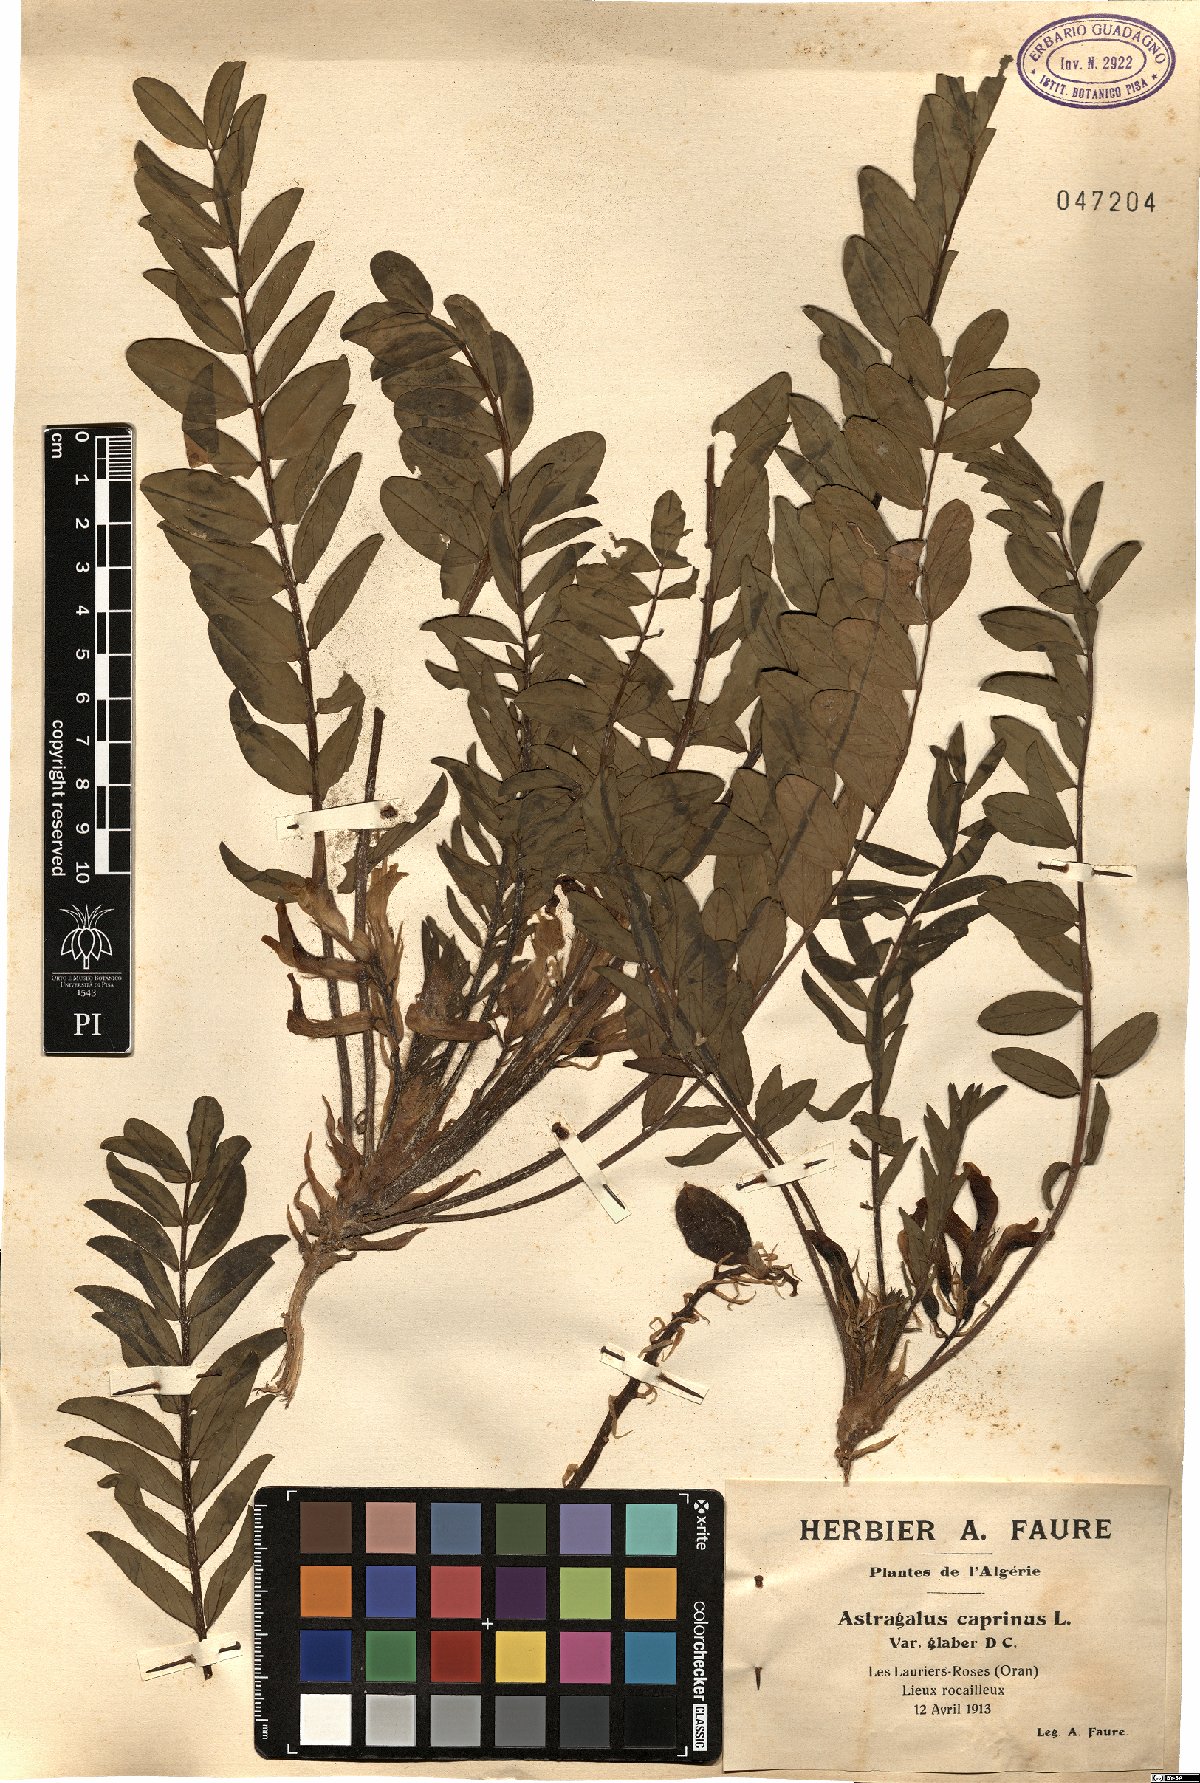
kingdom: Plantae
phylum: Tracheophyta
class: Magnoliopsida
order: Fabales
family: Fabaceae
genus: Astragalus
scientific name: Astragalus boreoafricanus
